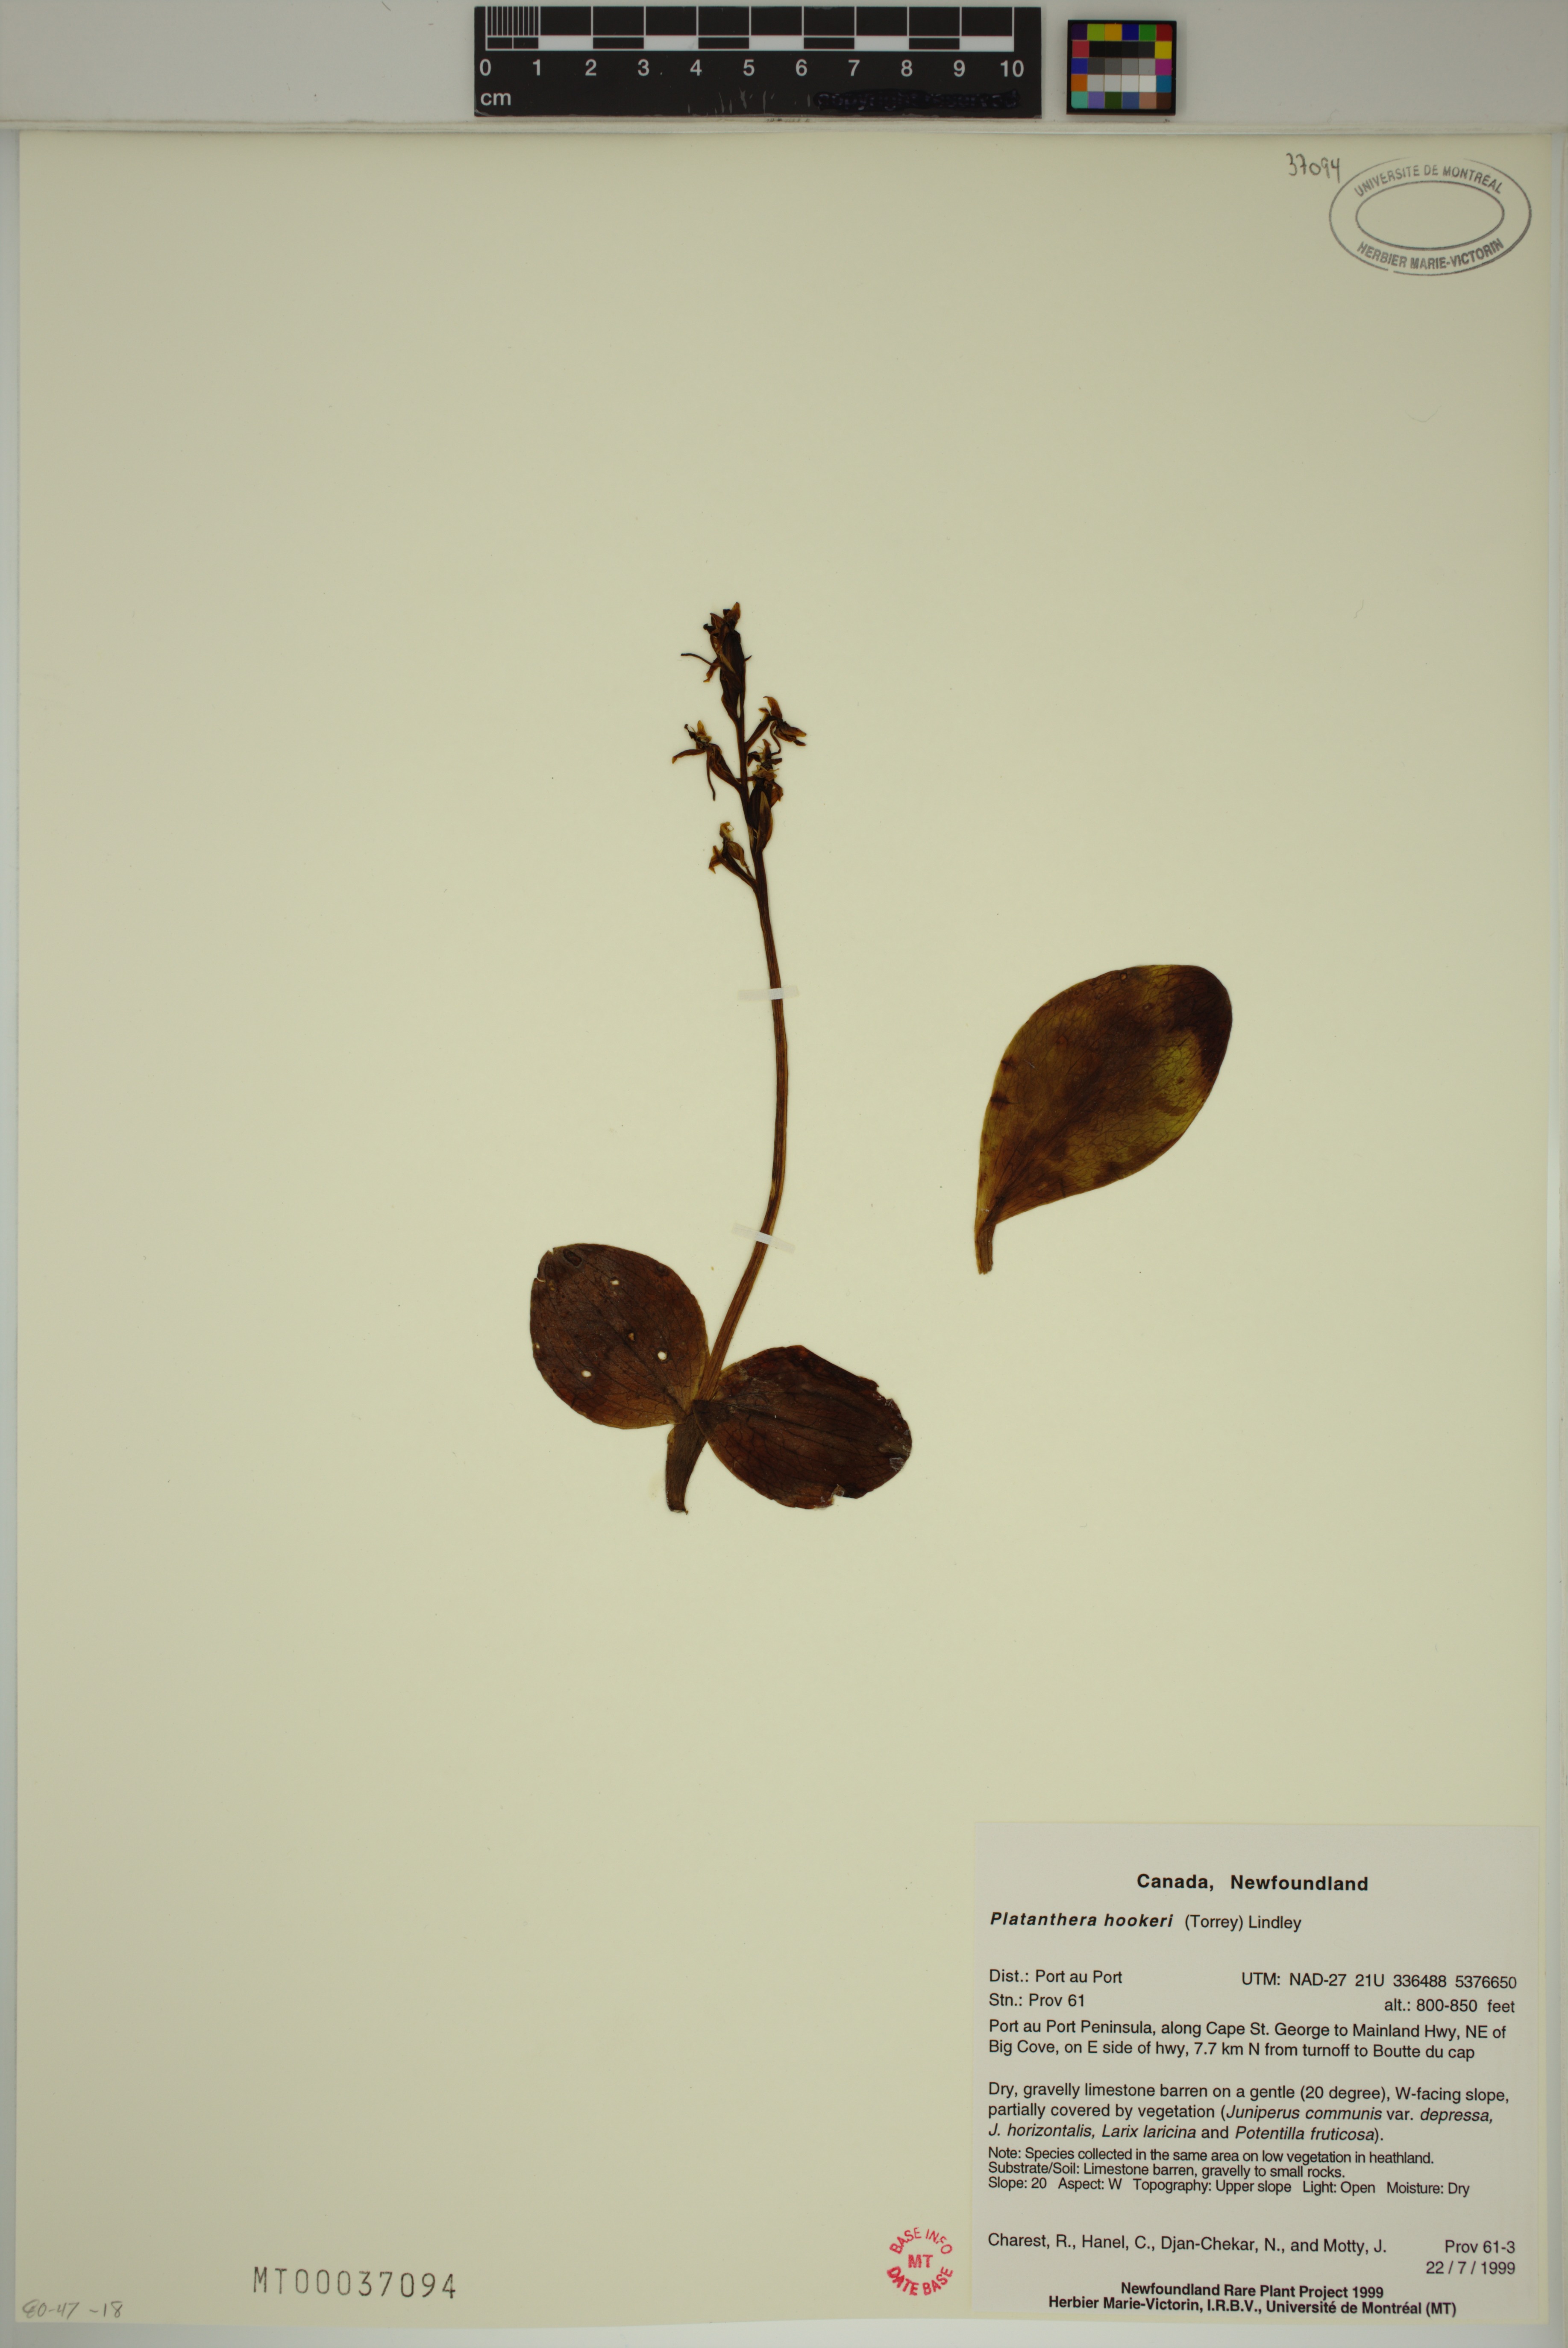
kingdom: Plantae
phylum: Tracheophyta
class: Liliopsida
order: Asparagales
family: Orchidaceae
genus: Platanthera
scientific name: Platanthera hookeri
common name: Hooker's orchid
